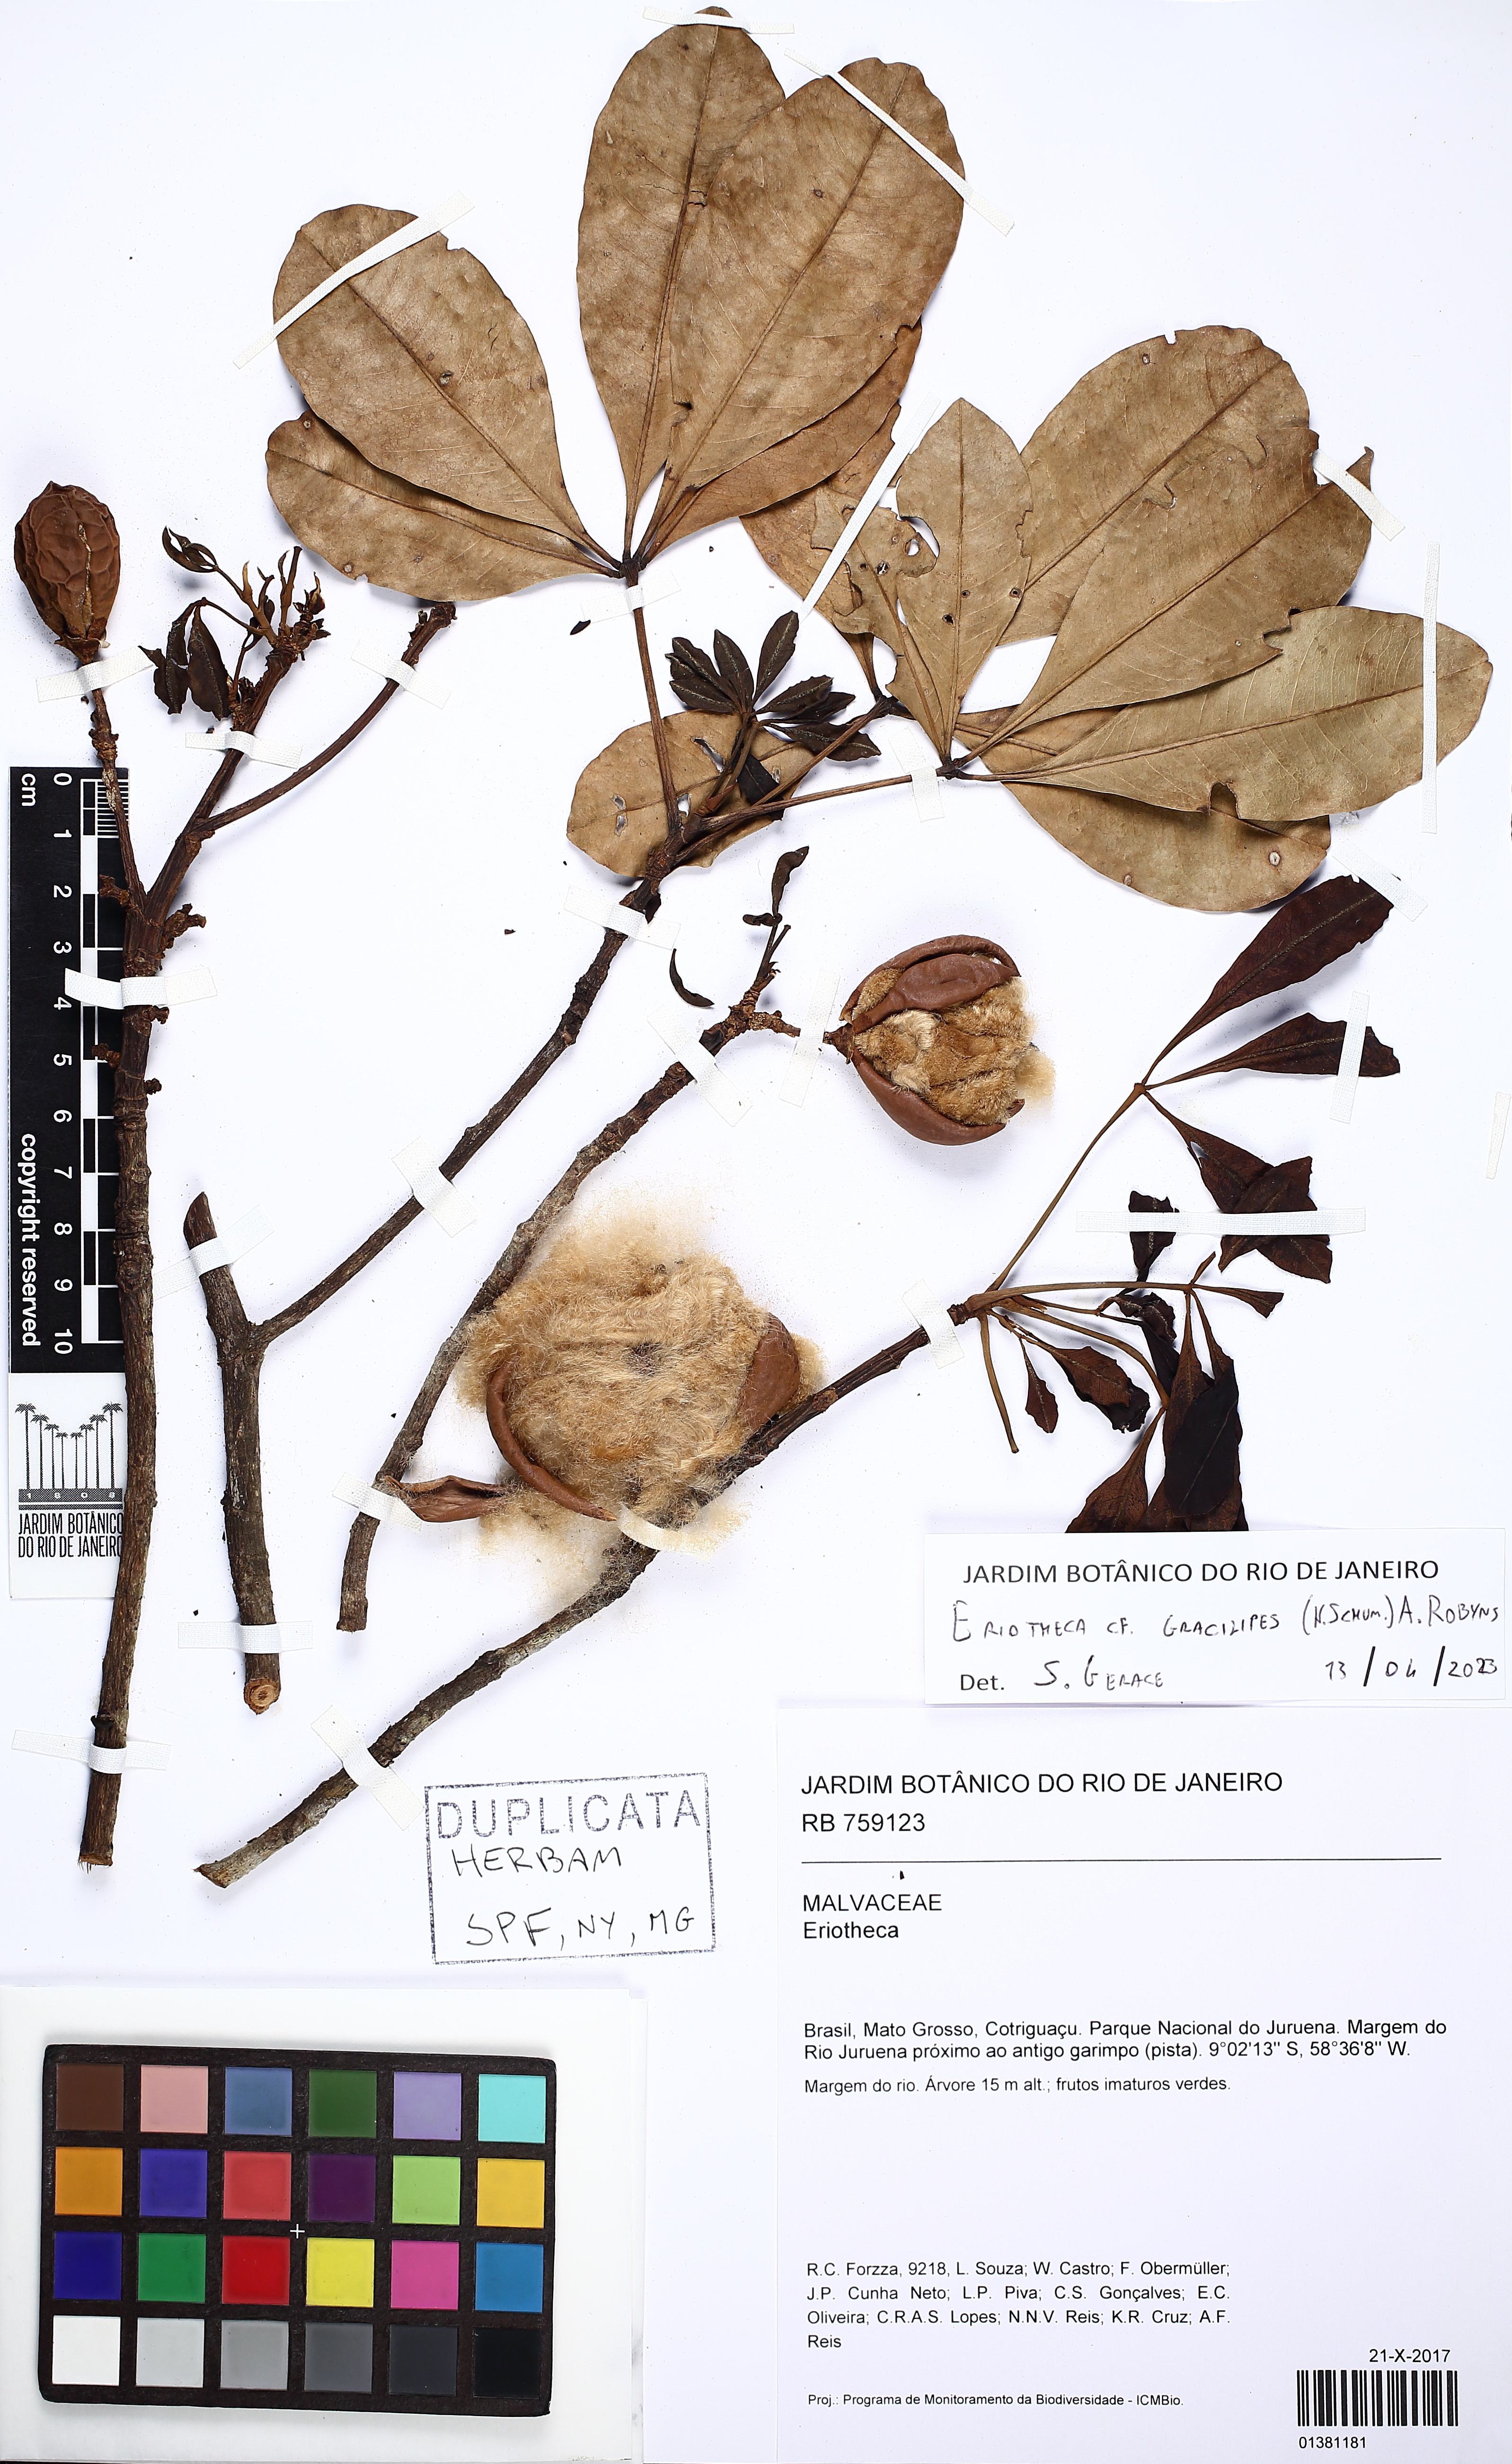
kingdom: Plantae
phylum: Tracheophyta
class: Magnoliopsida
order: Malvales
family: Malvaceae
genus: Eriotheca
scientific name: Eriotheca gracilipes
